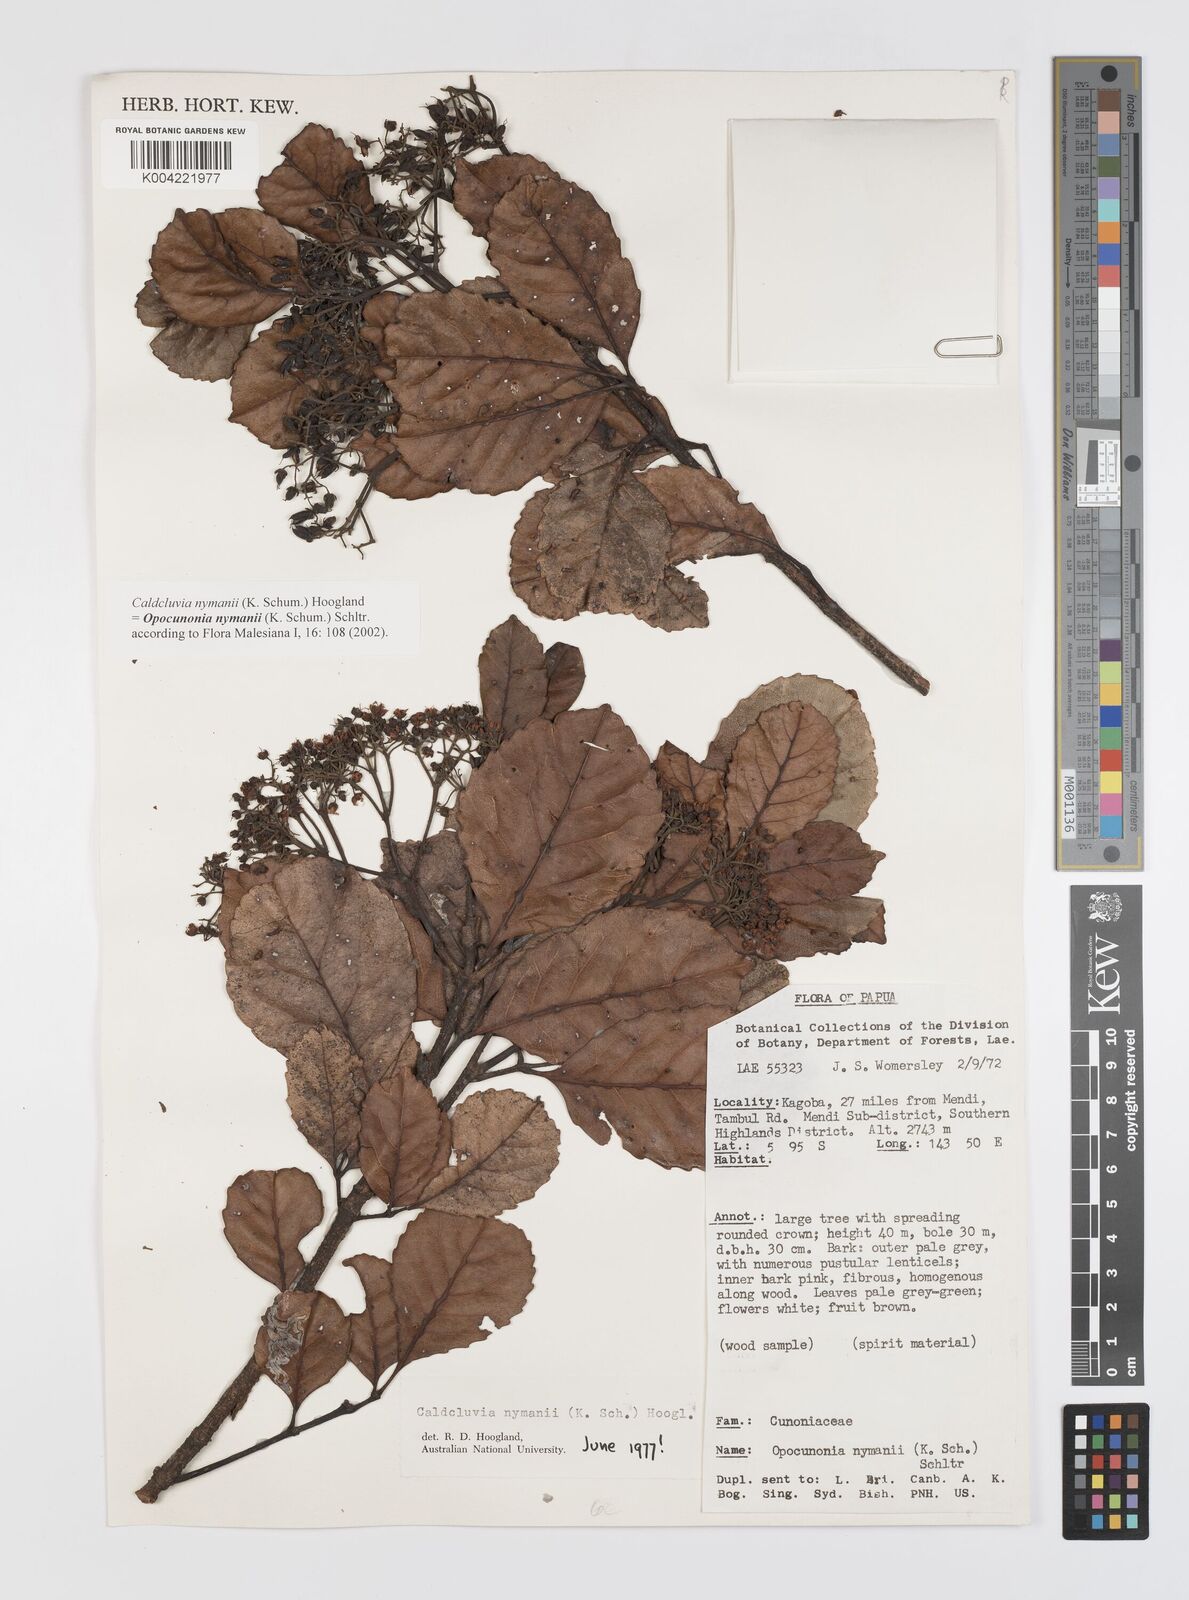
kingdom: Plantae
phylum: Tracheophyta
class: Magnoliopsida
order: Oxalidales
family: Cunoniaceae
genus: Opocunonia
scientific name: Opocunonia nymanii
